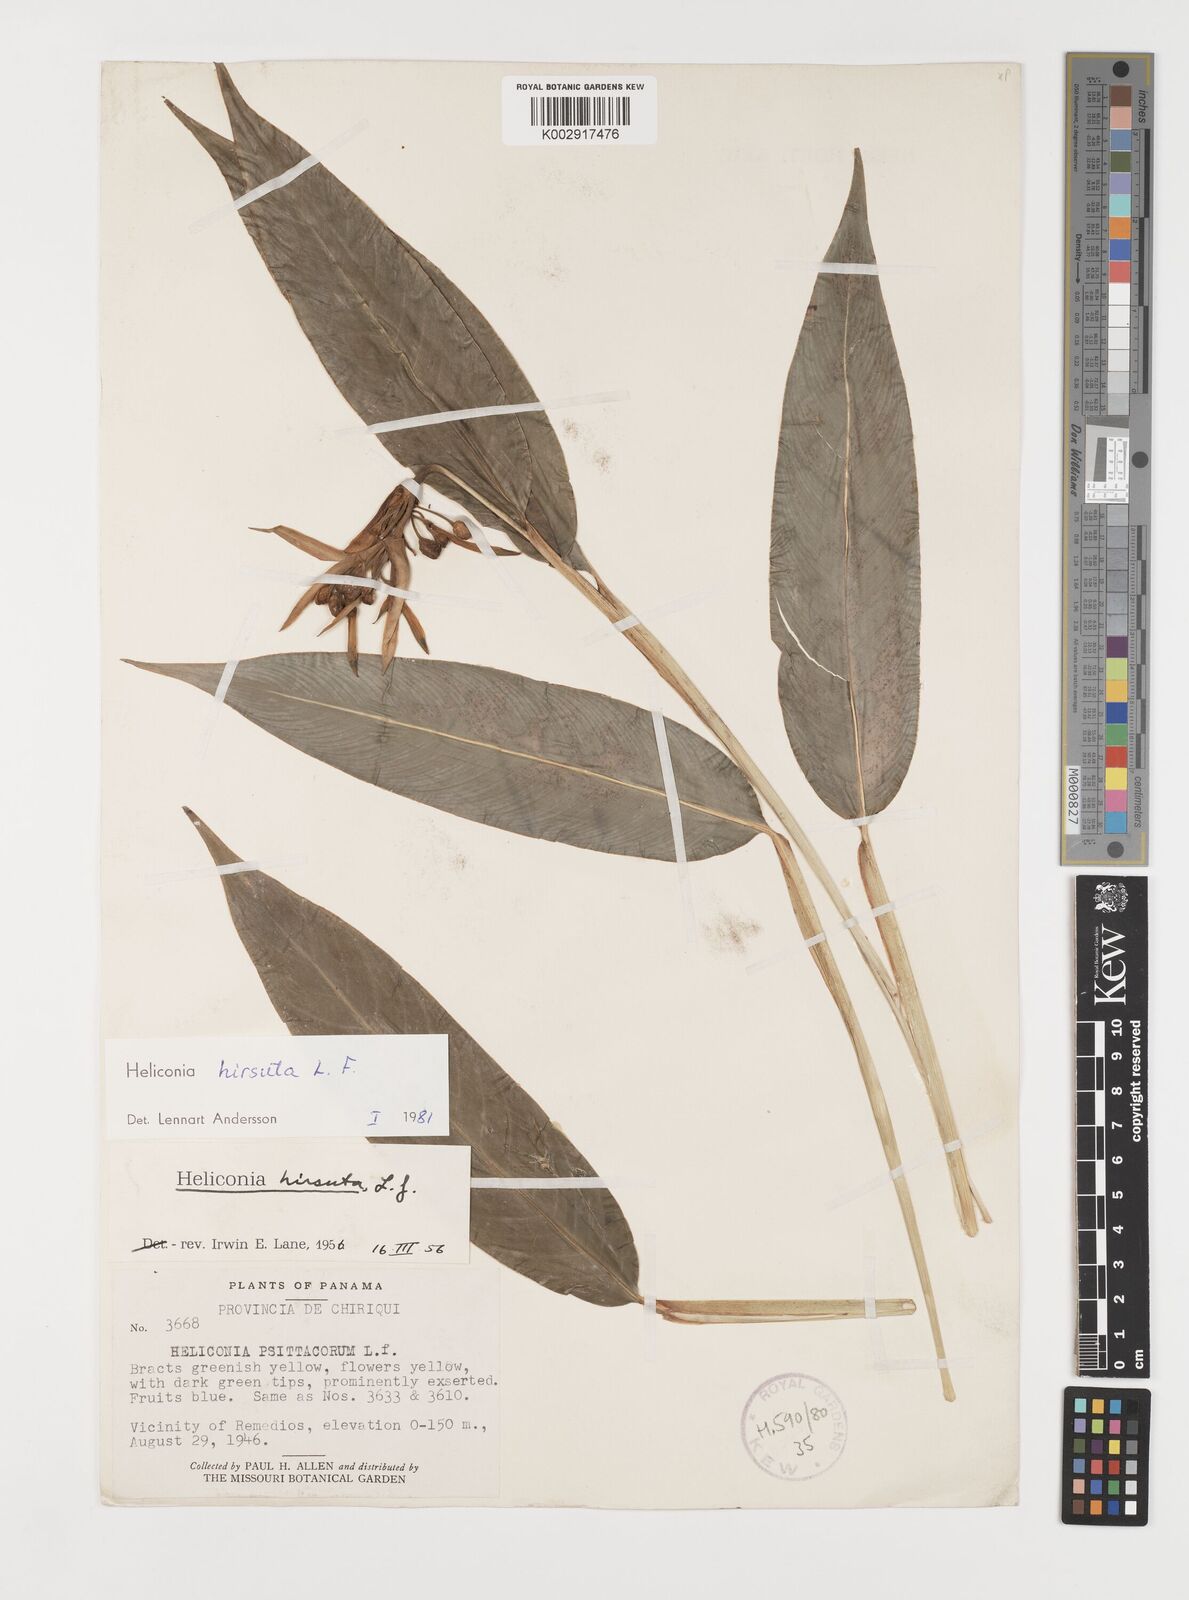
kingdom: Plantae
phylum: Tracheophyta
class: Liliopsida
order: Zingiberales
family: Heliconiaceae
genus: Heliconia
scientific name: Heliconia schiedeana
